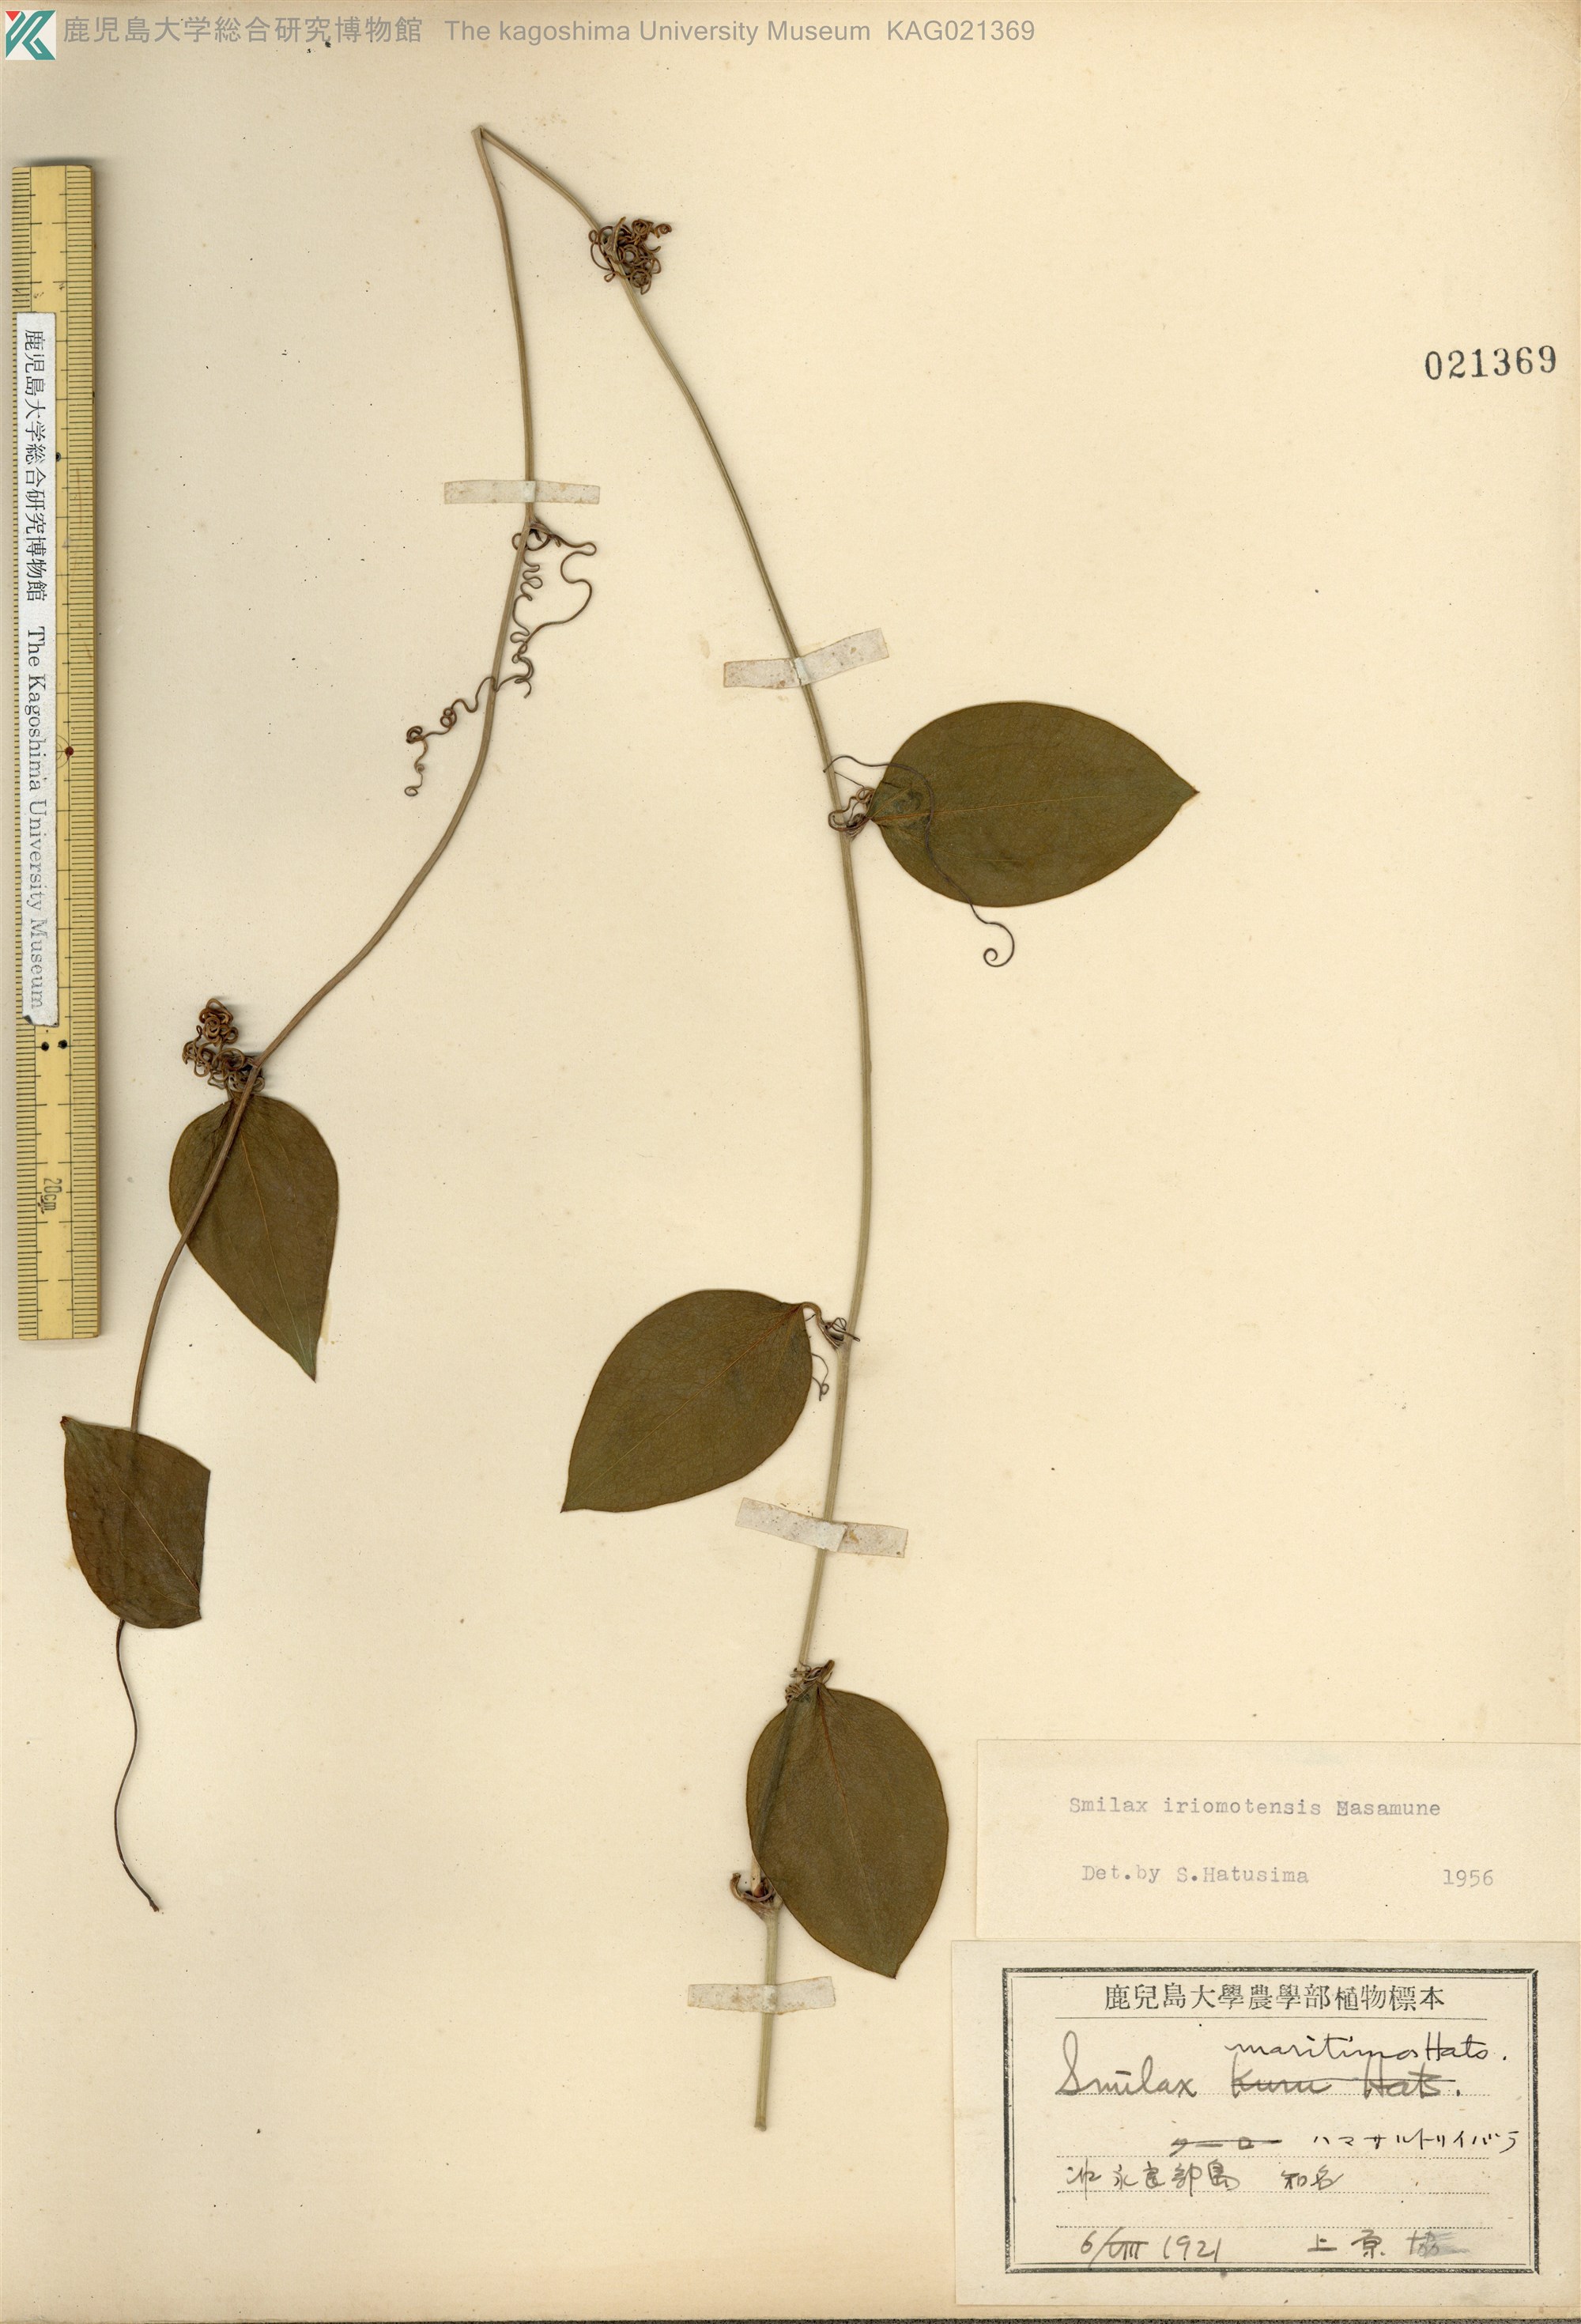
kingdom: Plantae
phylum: Tracheophyta
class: Liliopsida
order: Liliales
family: Smilacaceae
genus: Smilax
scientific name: Smilax sebeana
